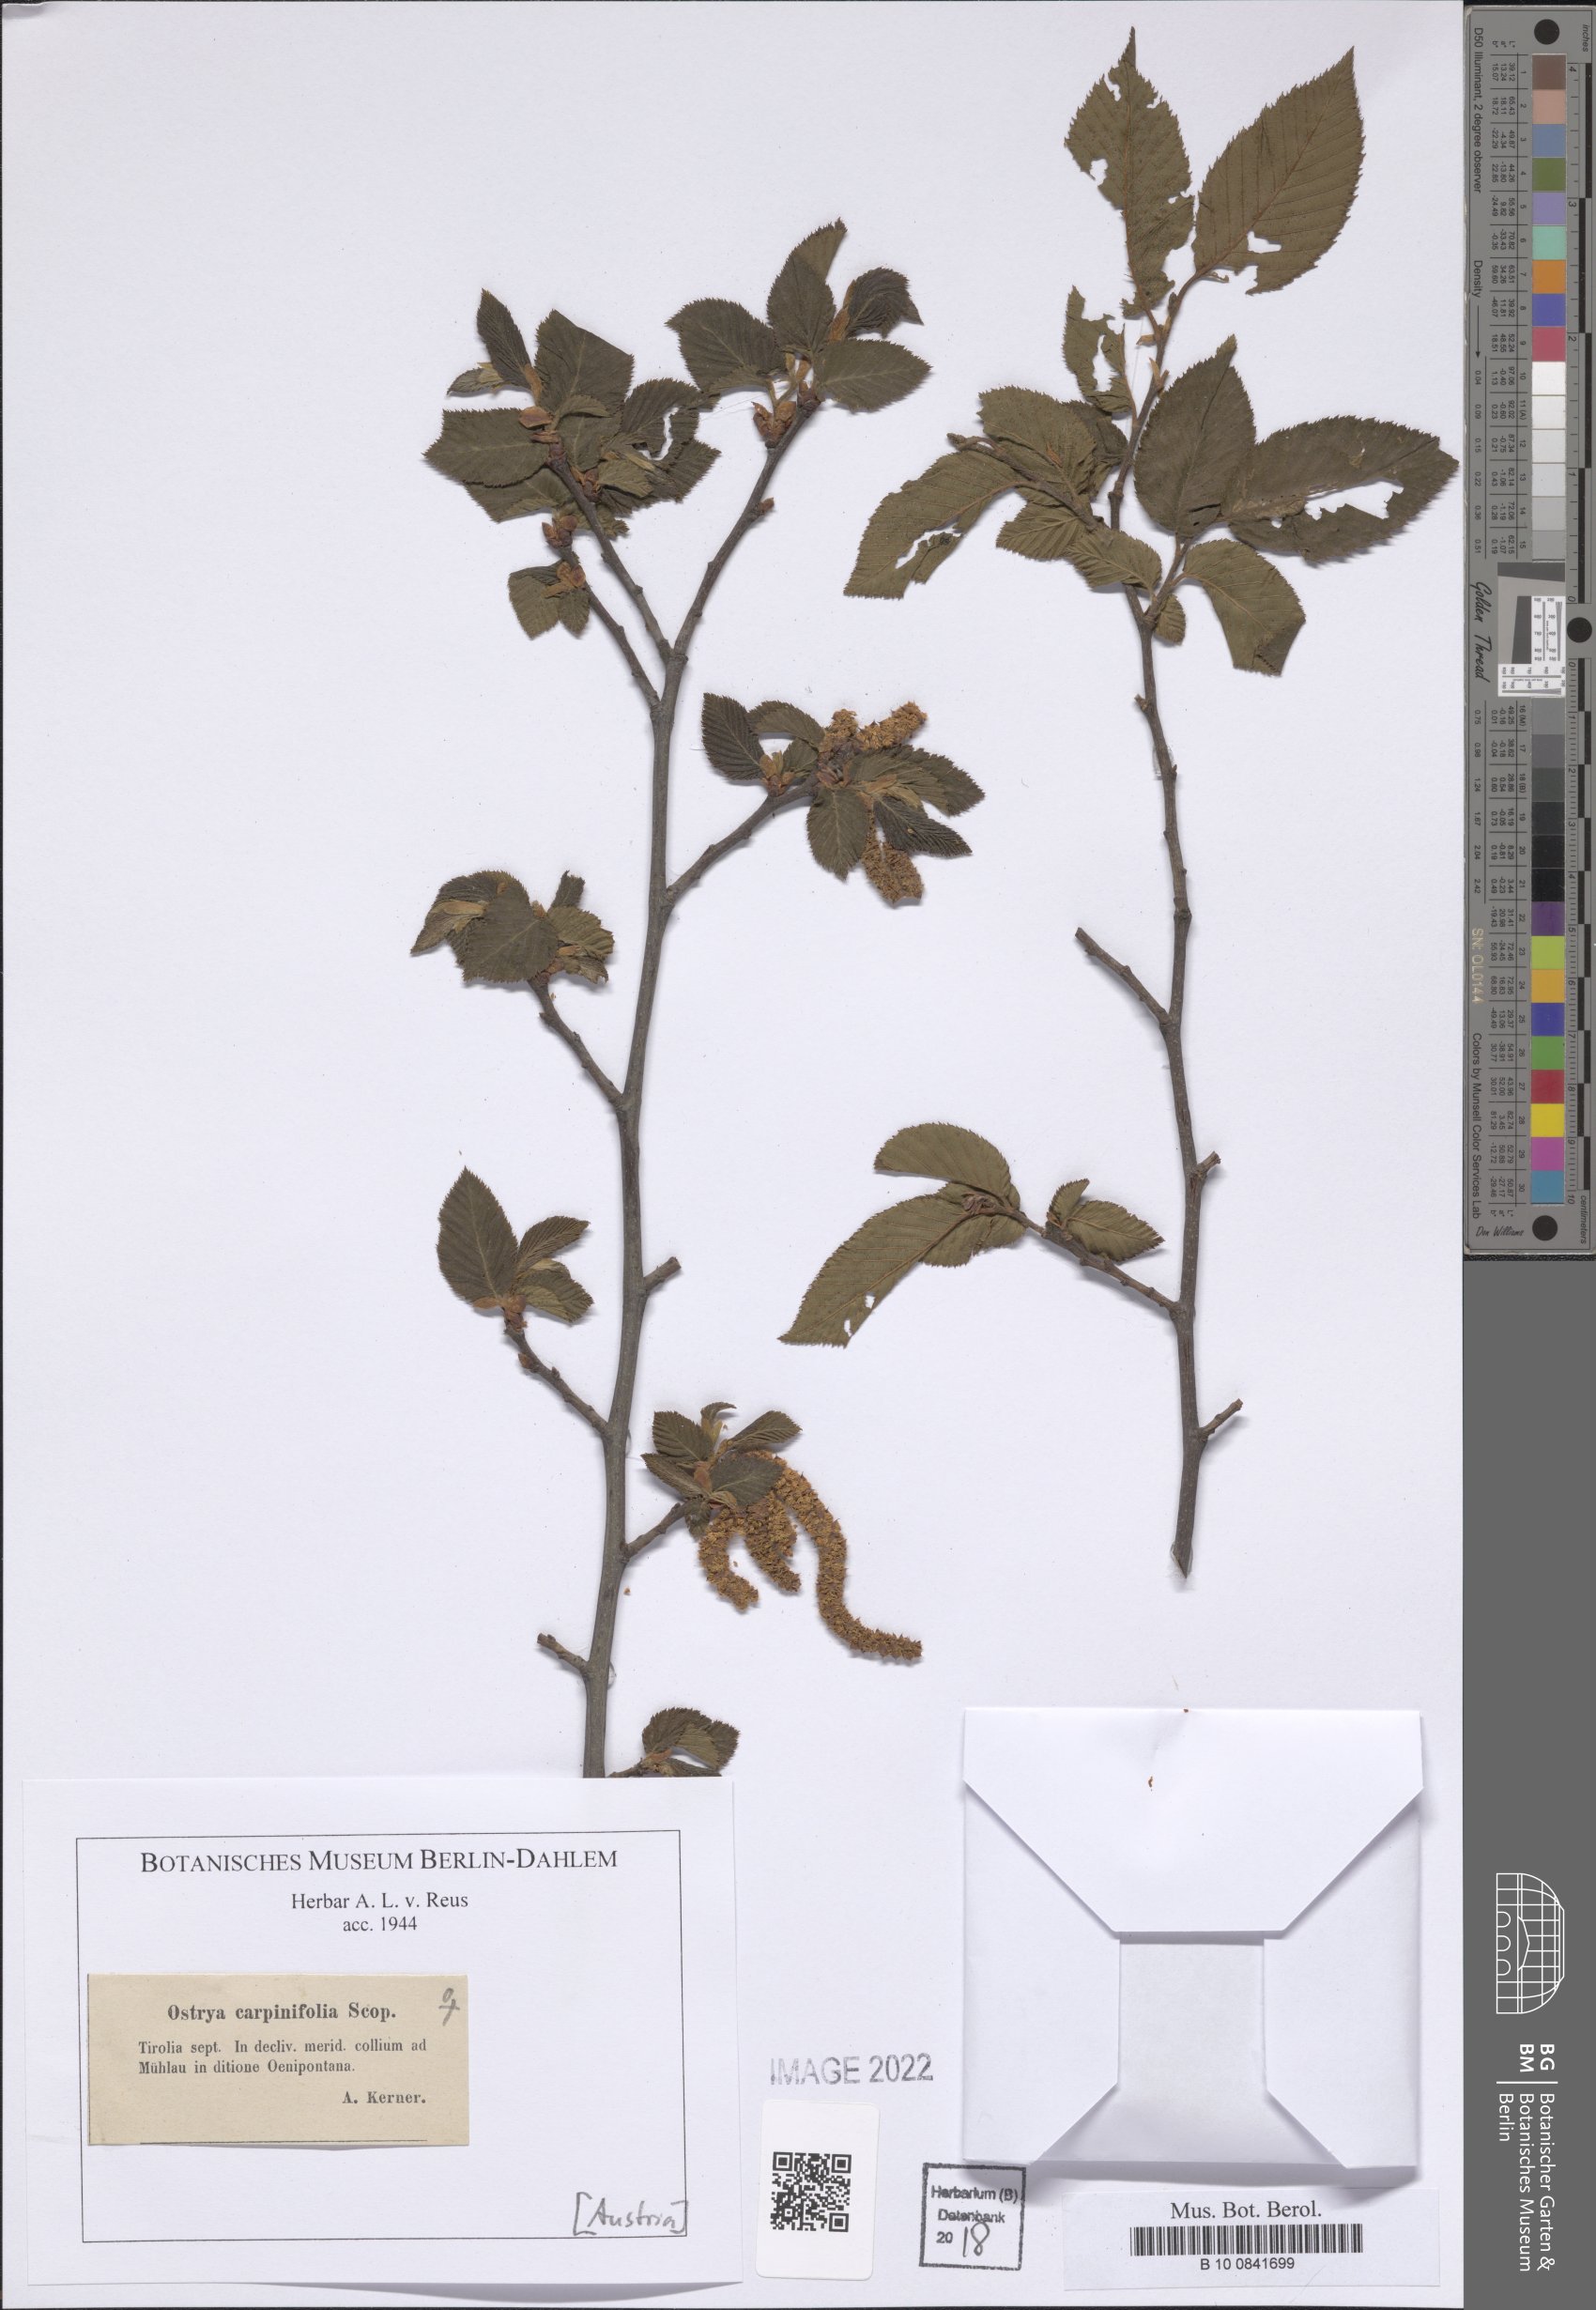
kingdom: Plantae
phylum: Tracheophyta
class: Magnoliopsida
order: Fagales
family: Betulaceae
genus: Ostrya
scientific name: Ostrya carpinifolia
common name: European hop-hornbeam
